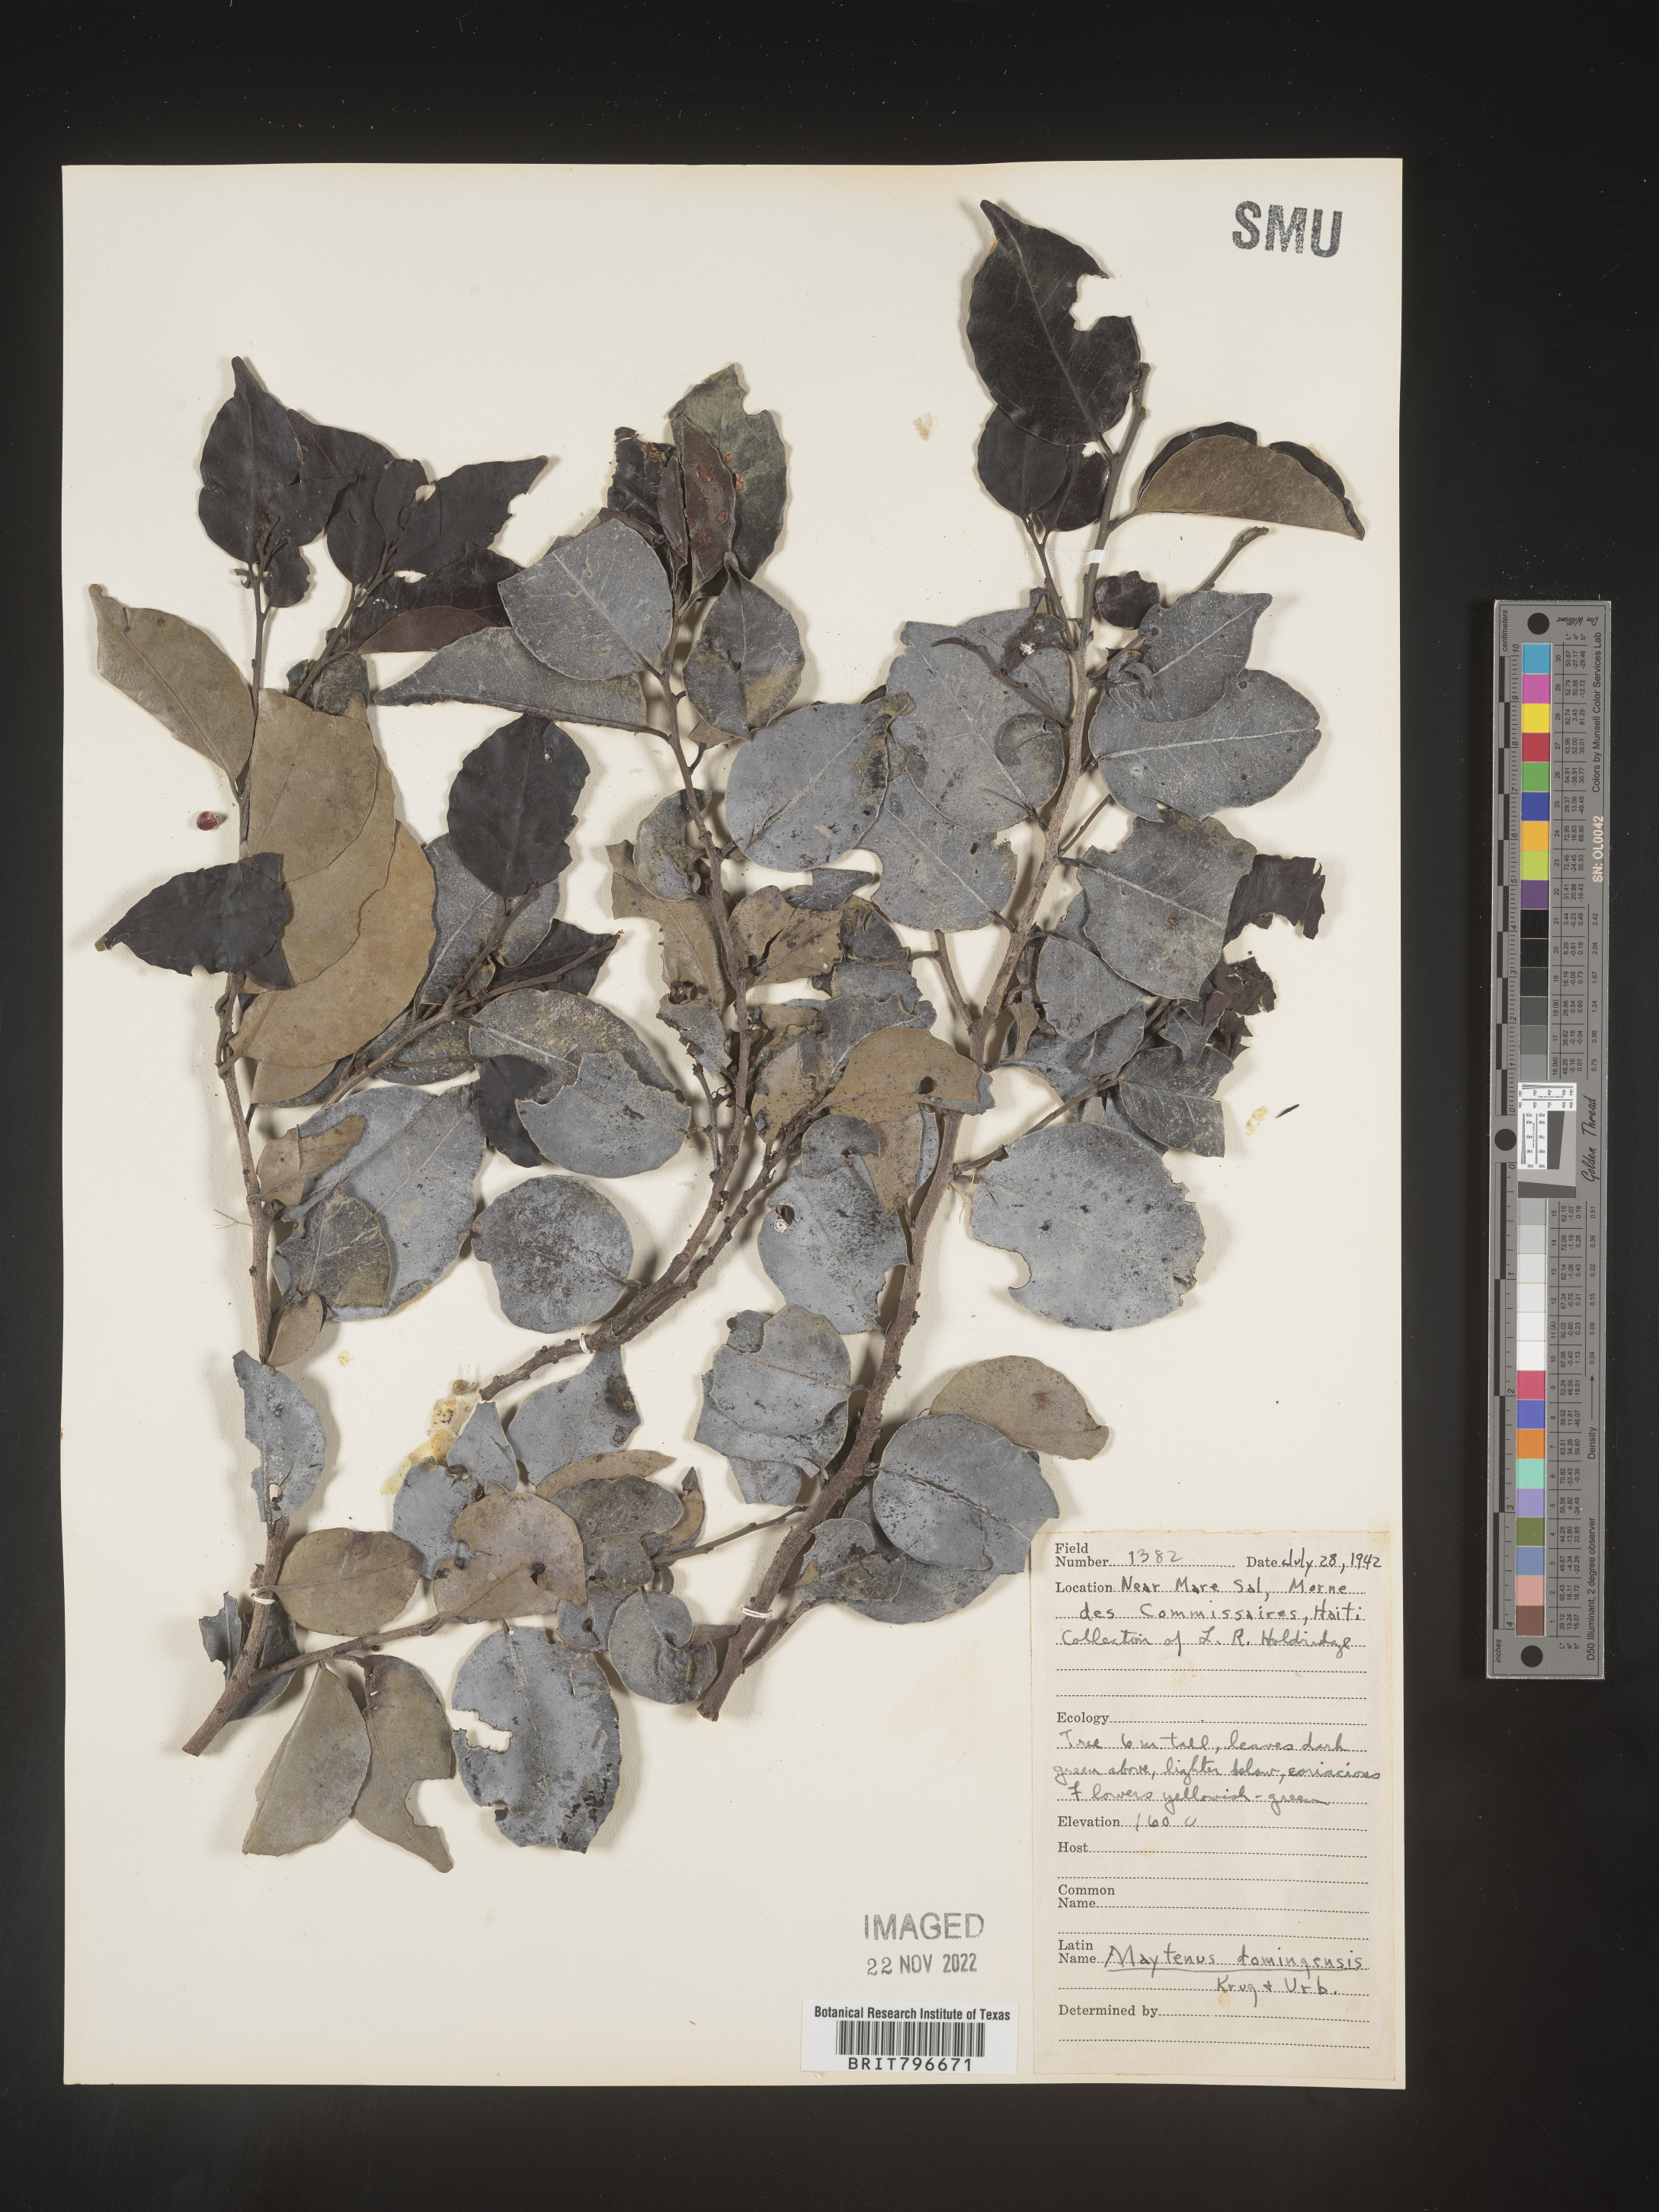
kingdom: Plantae
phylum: Tracheophyta
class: Magnoliopsida
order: Celastrales
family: Celastraceae
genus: Maytenus
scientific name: Maytenus
